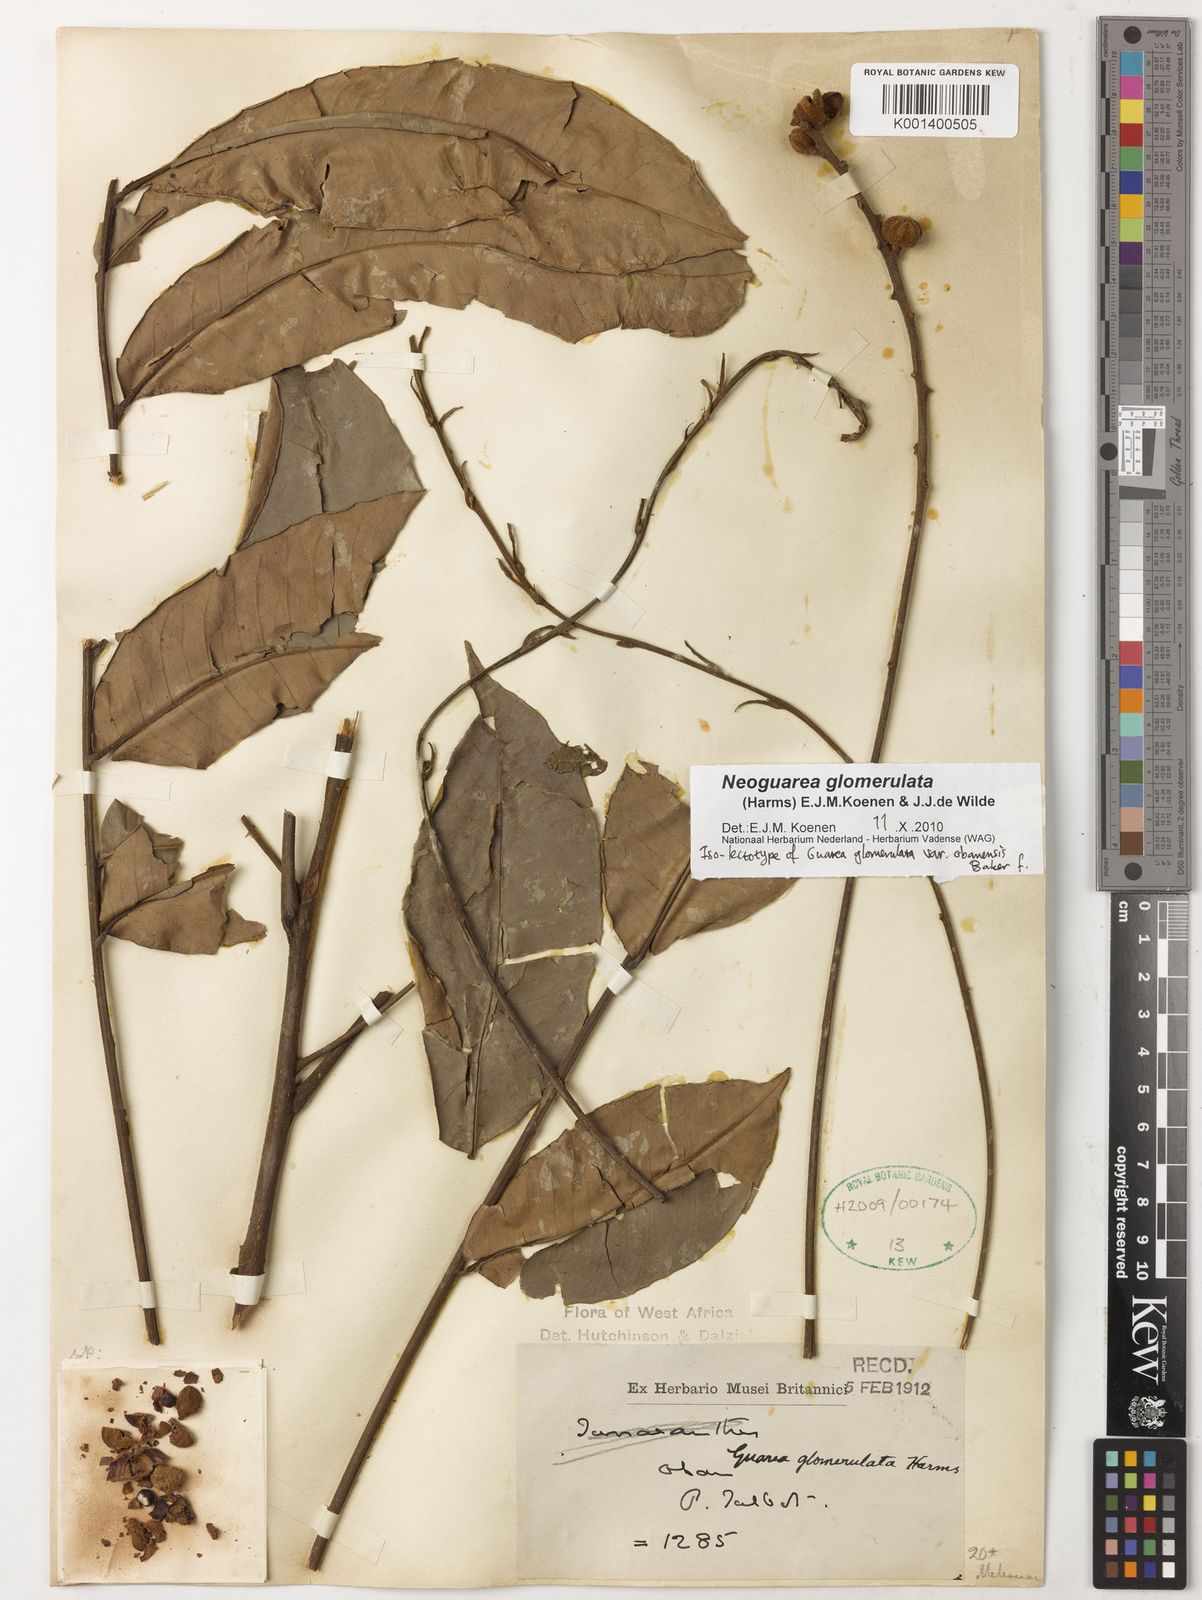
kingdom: Plantae
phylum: Tracheophyta
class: Magnoliopsida
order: Sapindales
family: Meliaceae
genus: Neoguarea
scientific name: Neoguarea glomerulata
